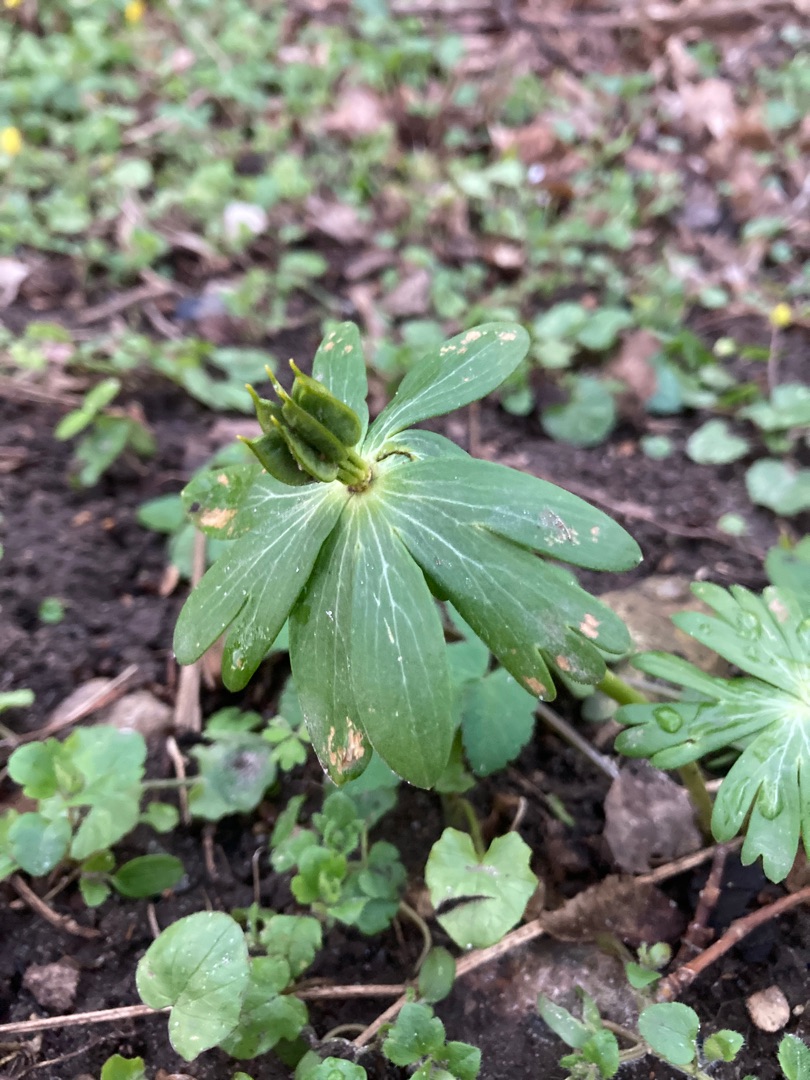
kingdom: Plantae
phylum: Tracheophyta
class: Magnoliopsida
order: Ranunculales
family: Ranunculaceae
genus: Eranthis
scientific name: Eranthis hyemalis
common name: Erantis
